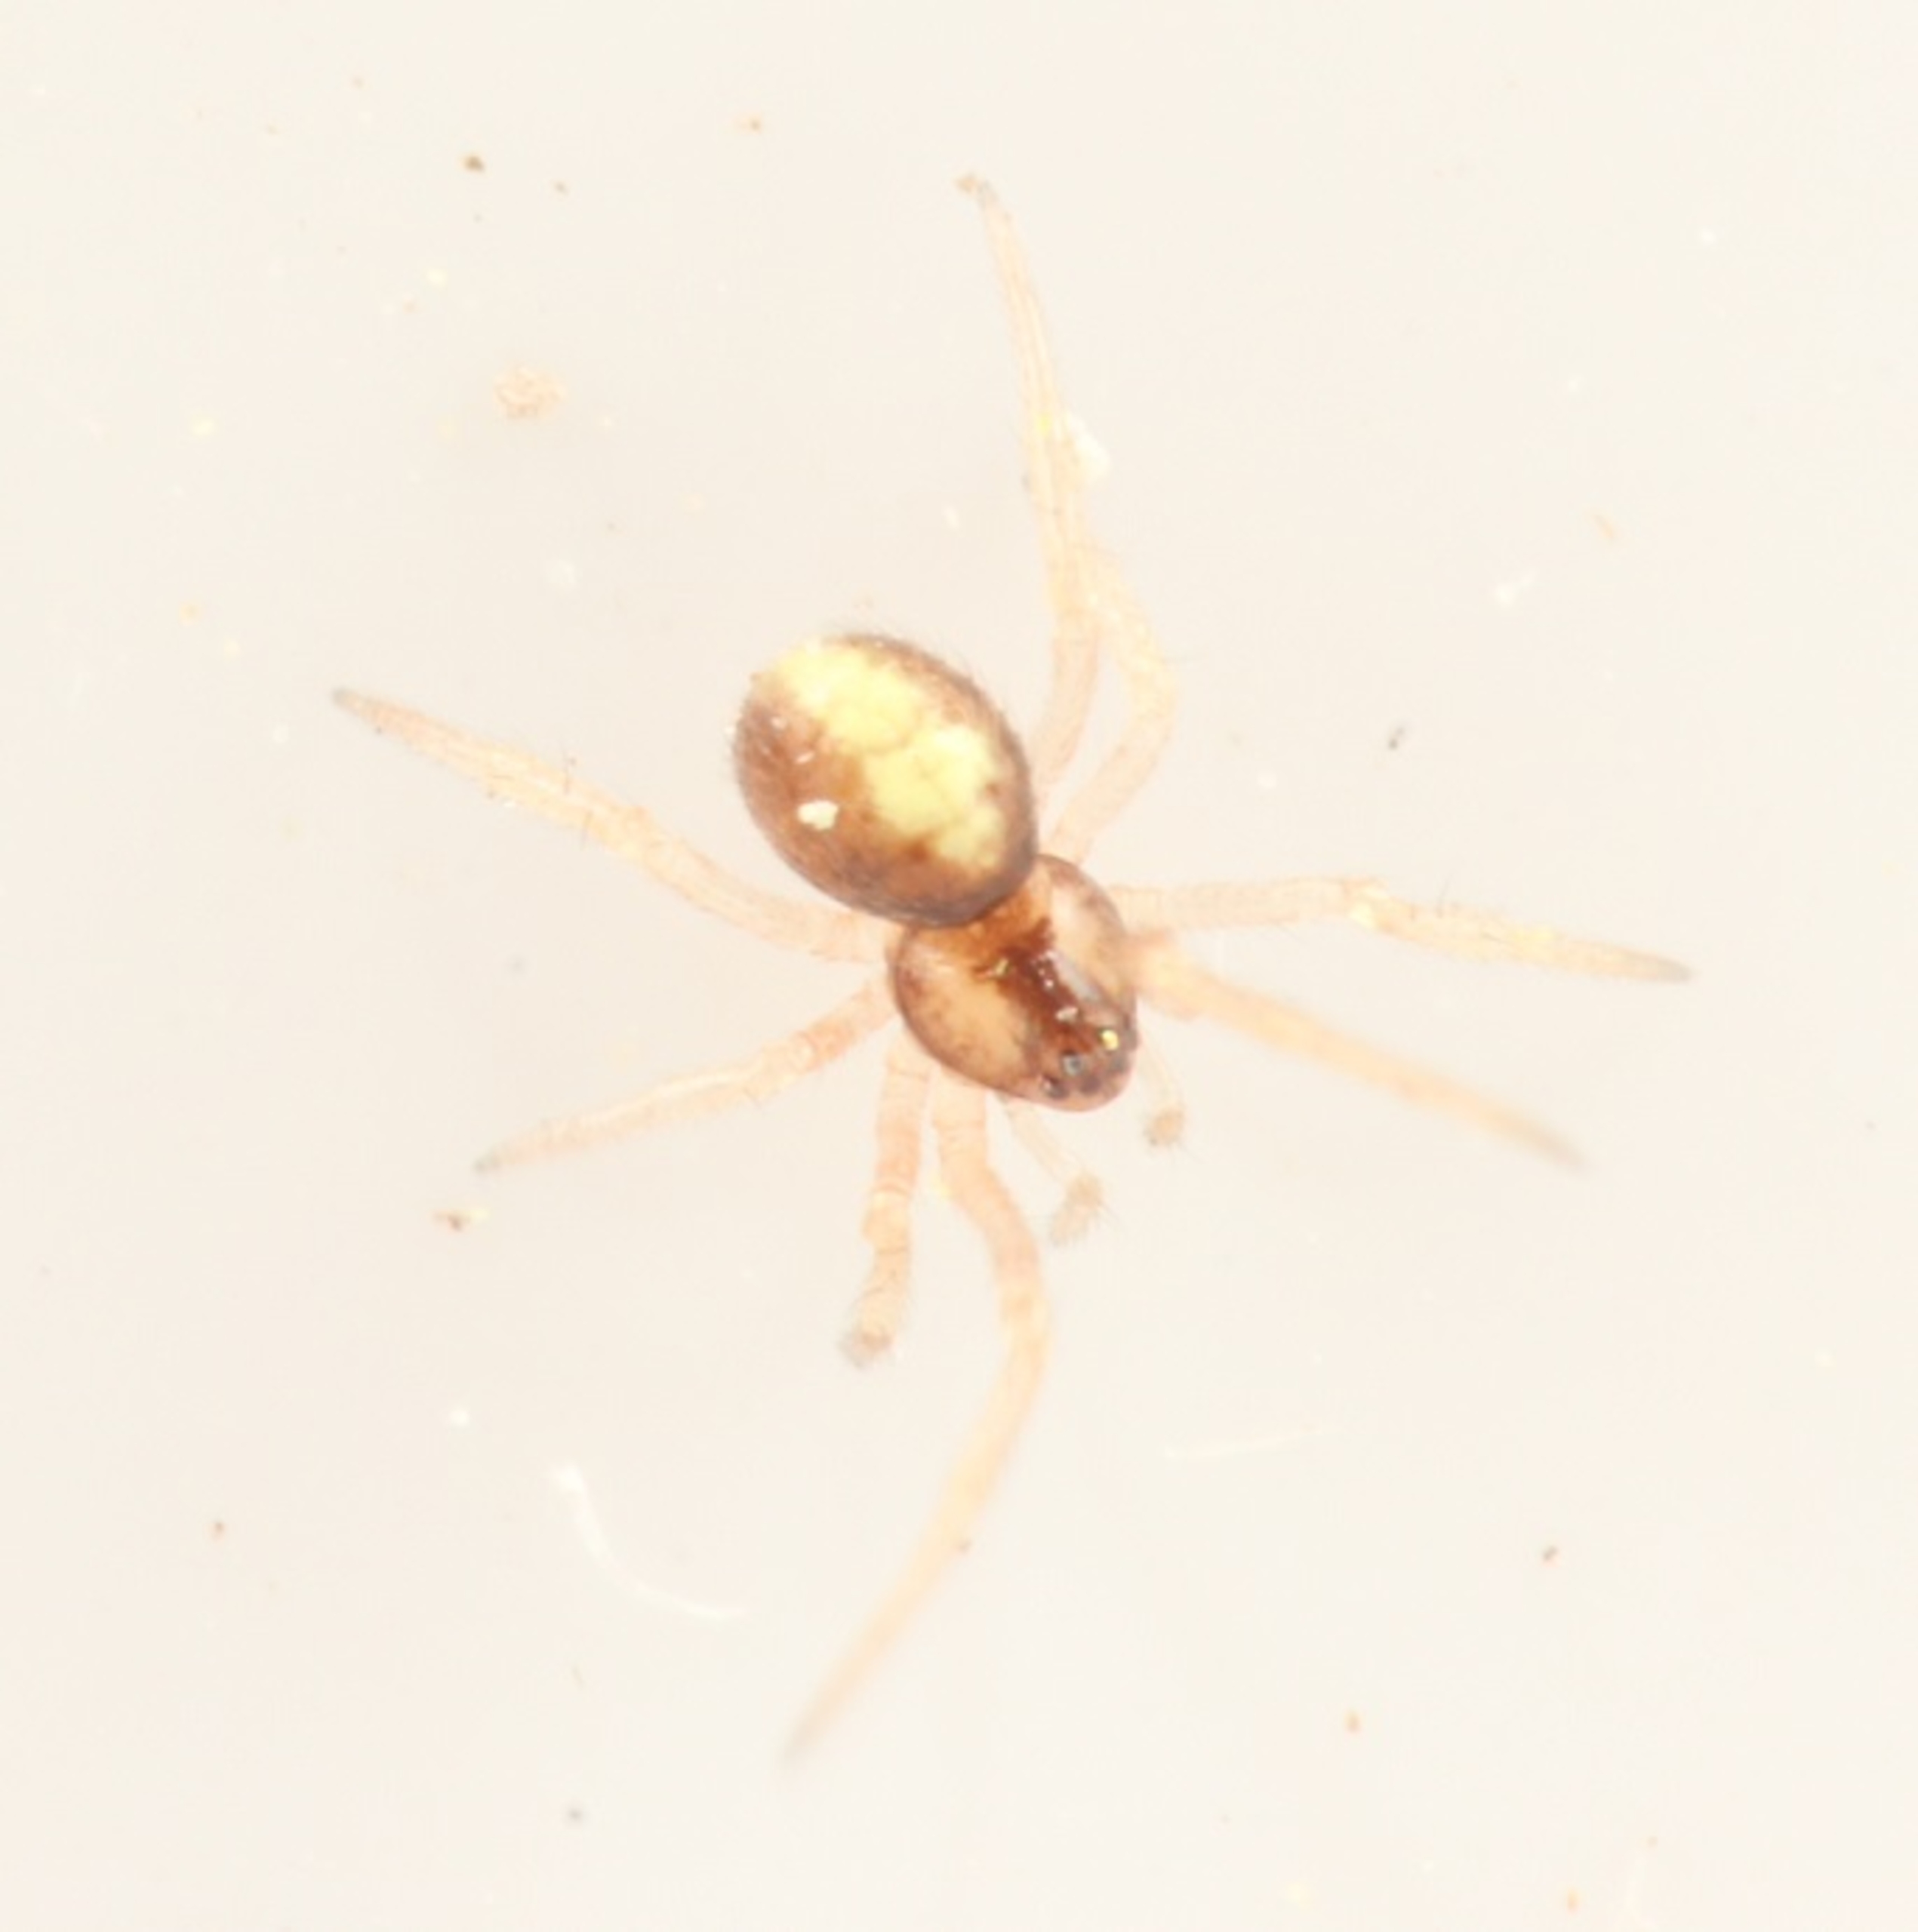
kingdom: Animalia
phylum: Arthropoda
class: Arachnida
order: Araneae
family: Theridiidae
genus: Neottiura
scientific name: Neottiura bimaculata
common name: Æggebæreren
